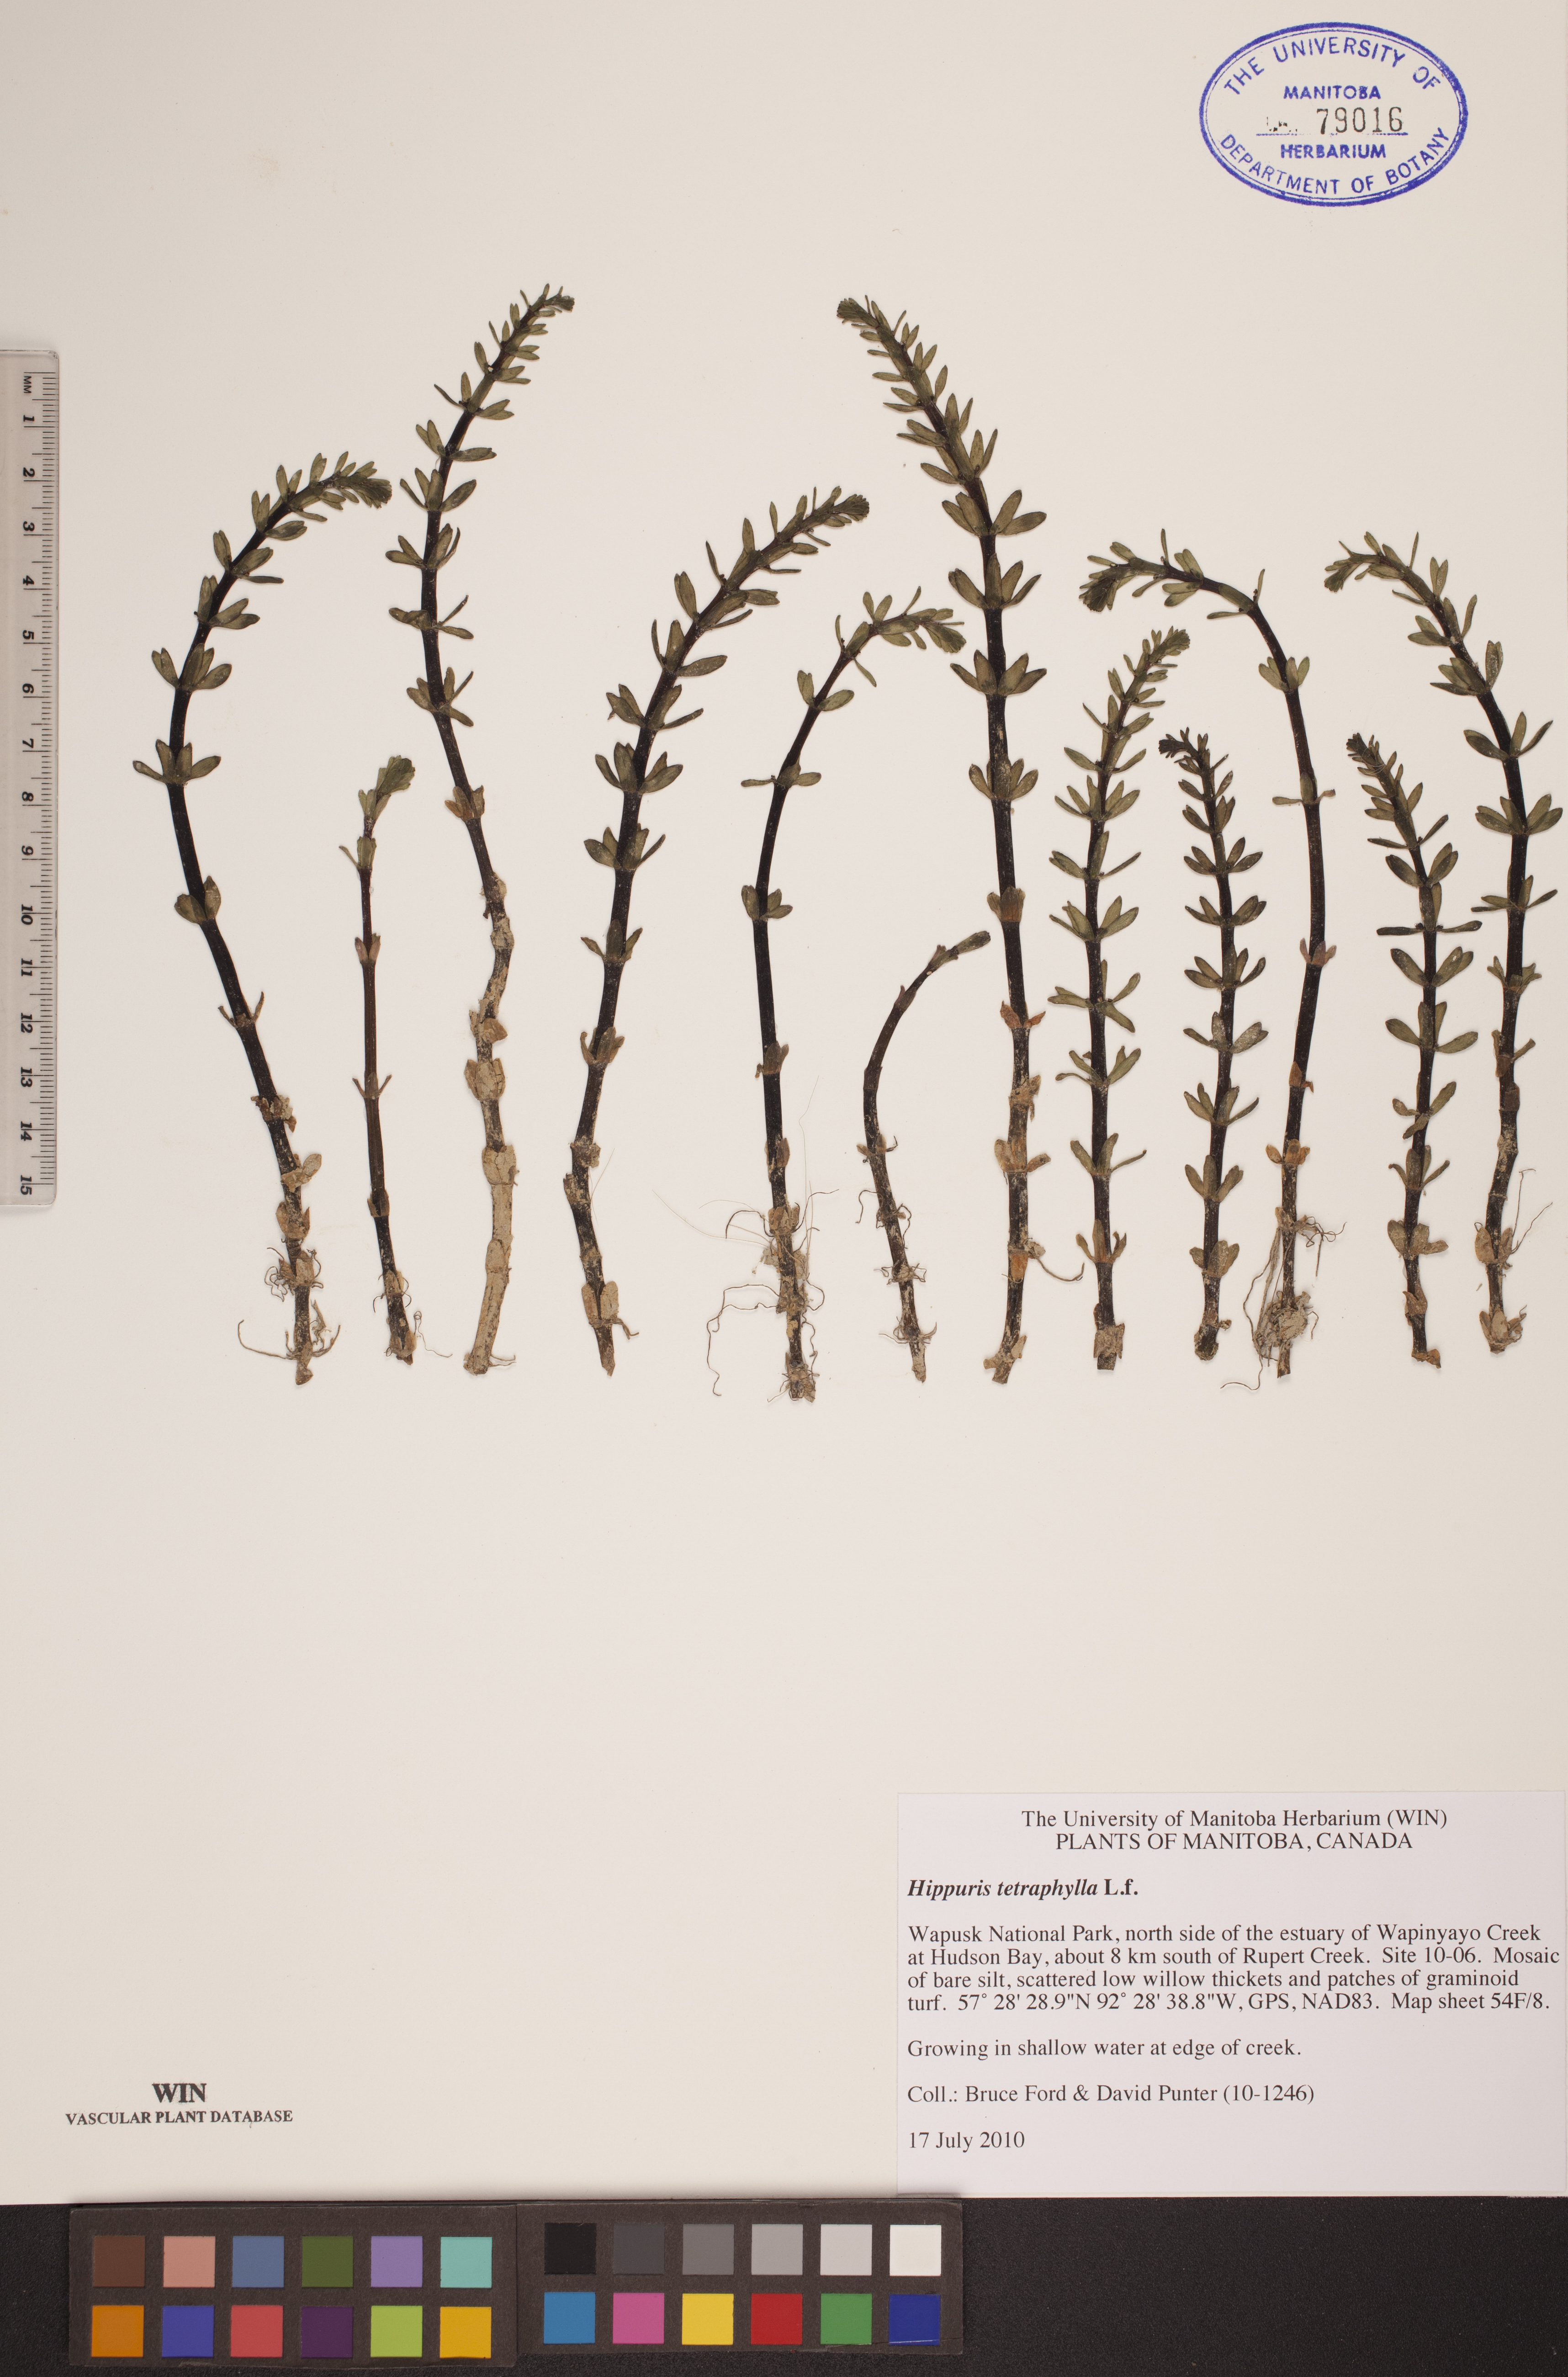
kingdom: Plantae
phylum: Tracheophyta
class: Magnoliopsida
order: Lamiales
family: Plantaginaceae
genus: Hippuris
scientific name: Hippuris tetraphylla
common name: Four-leaved mare's-tail
